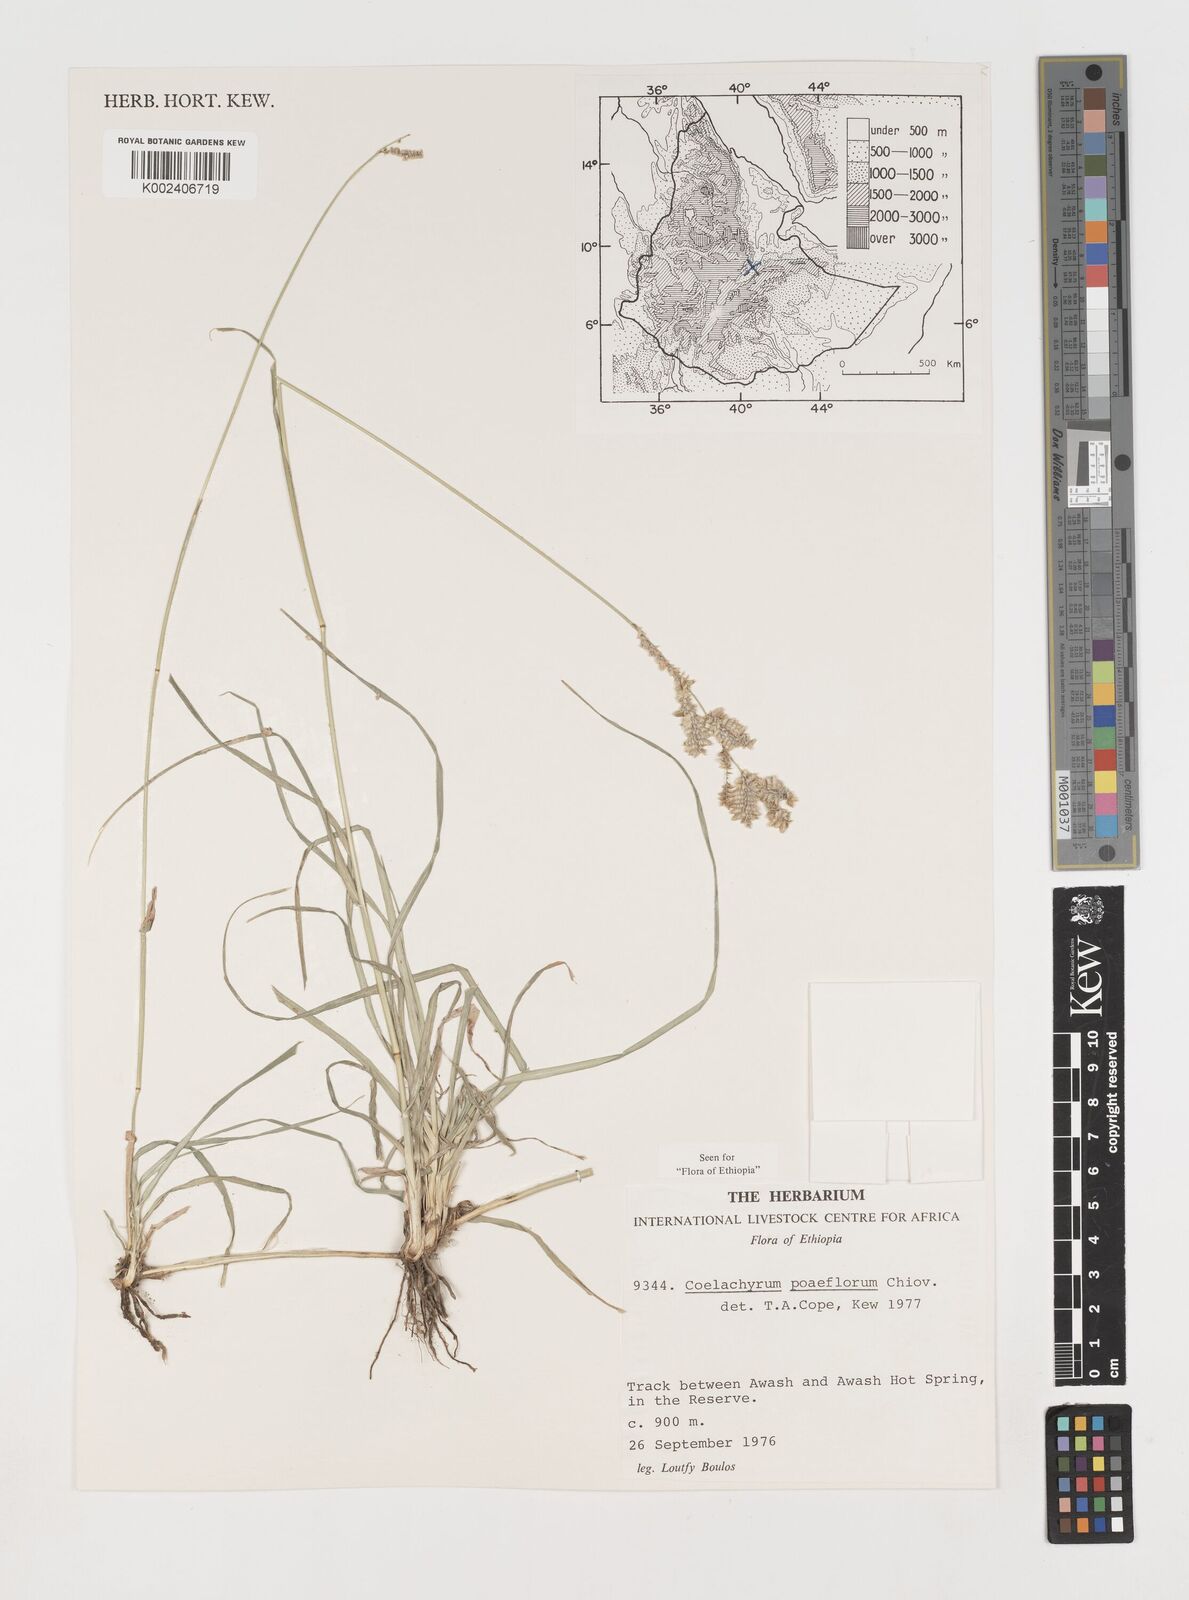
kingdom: Plantae
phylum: Tracheophyta
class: Liliopsida
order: Poales
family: Poaceae
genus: Coelachyrum
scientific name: Coelachyrum poiflorum
